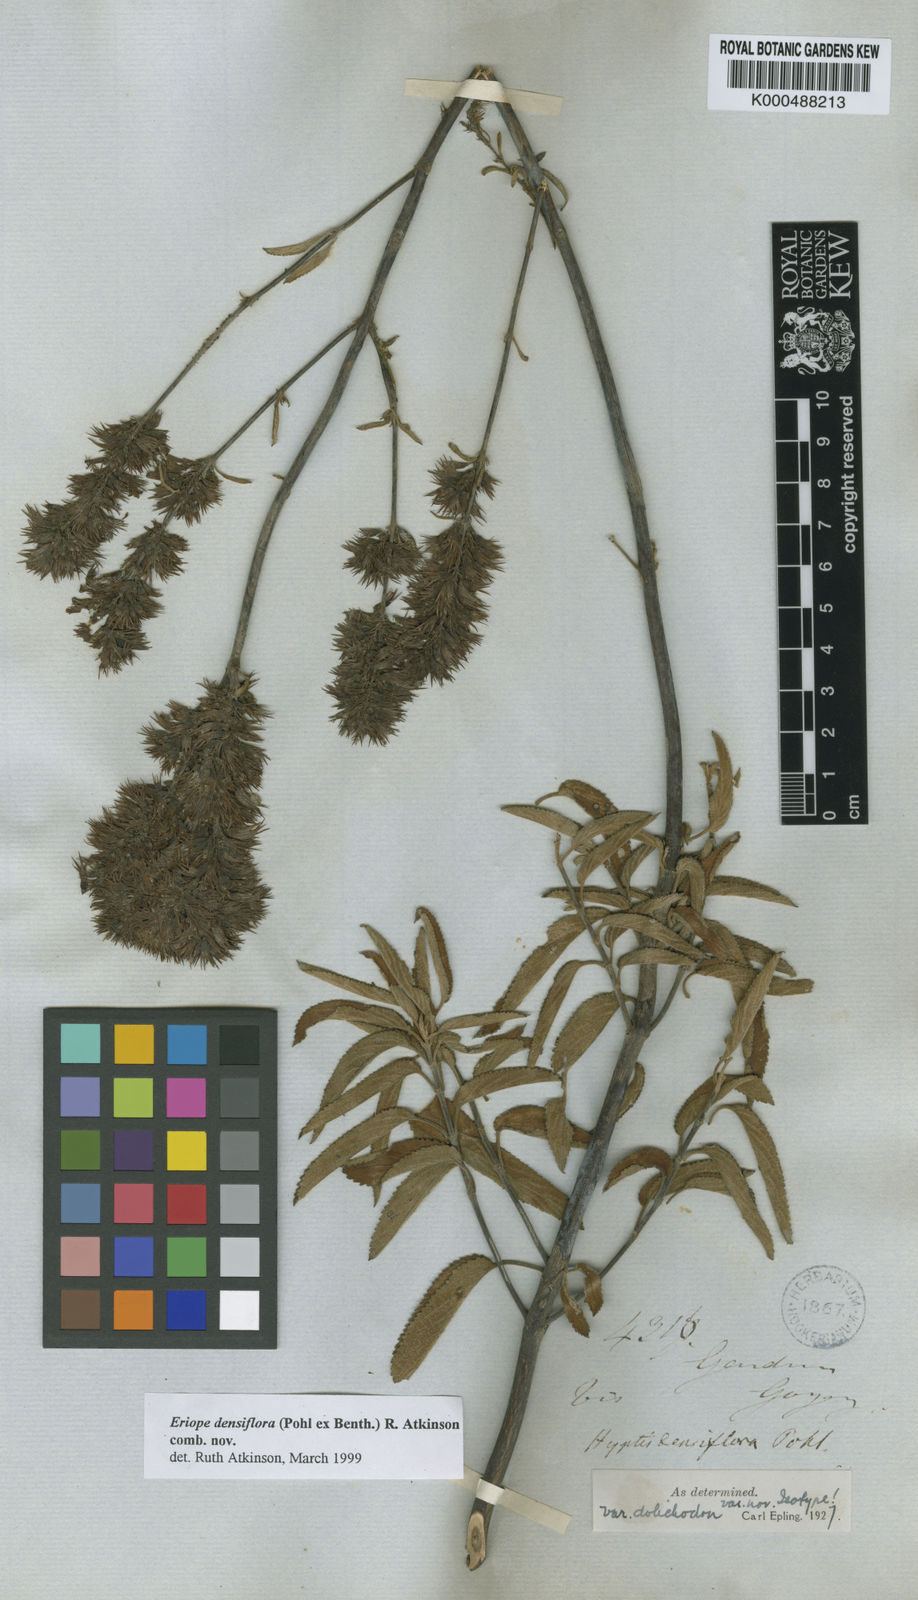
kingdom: Plantae
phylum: Tracheophyta
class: Magnoliopsida
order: Lamiales
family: Lamiaceae
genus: Hypenia
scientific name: Hypenia densiflora
